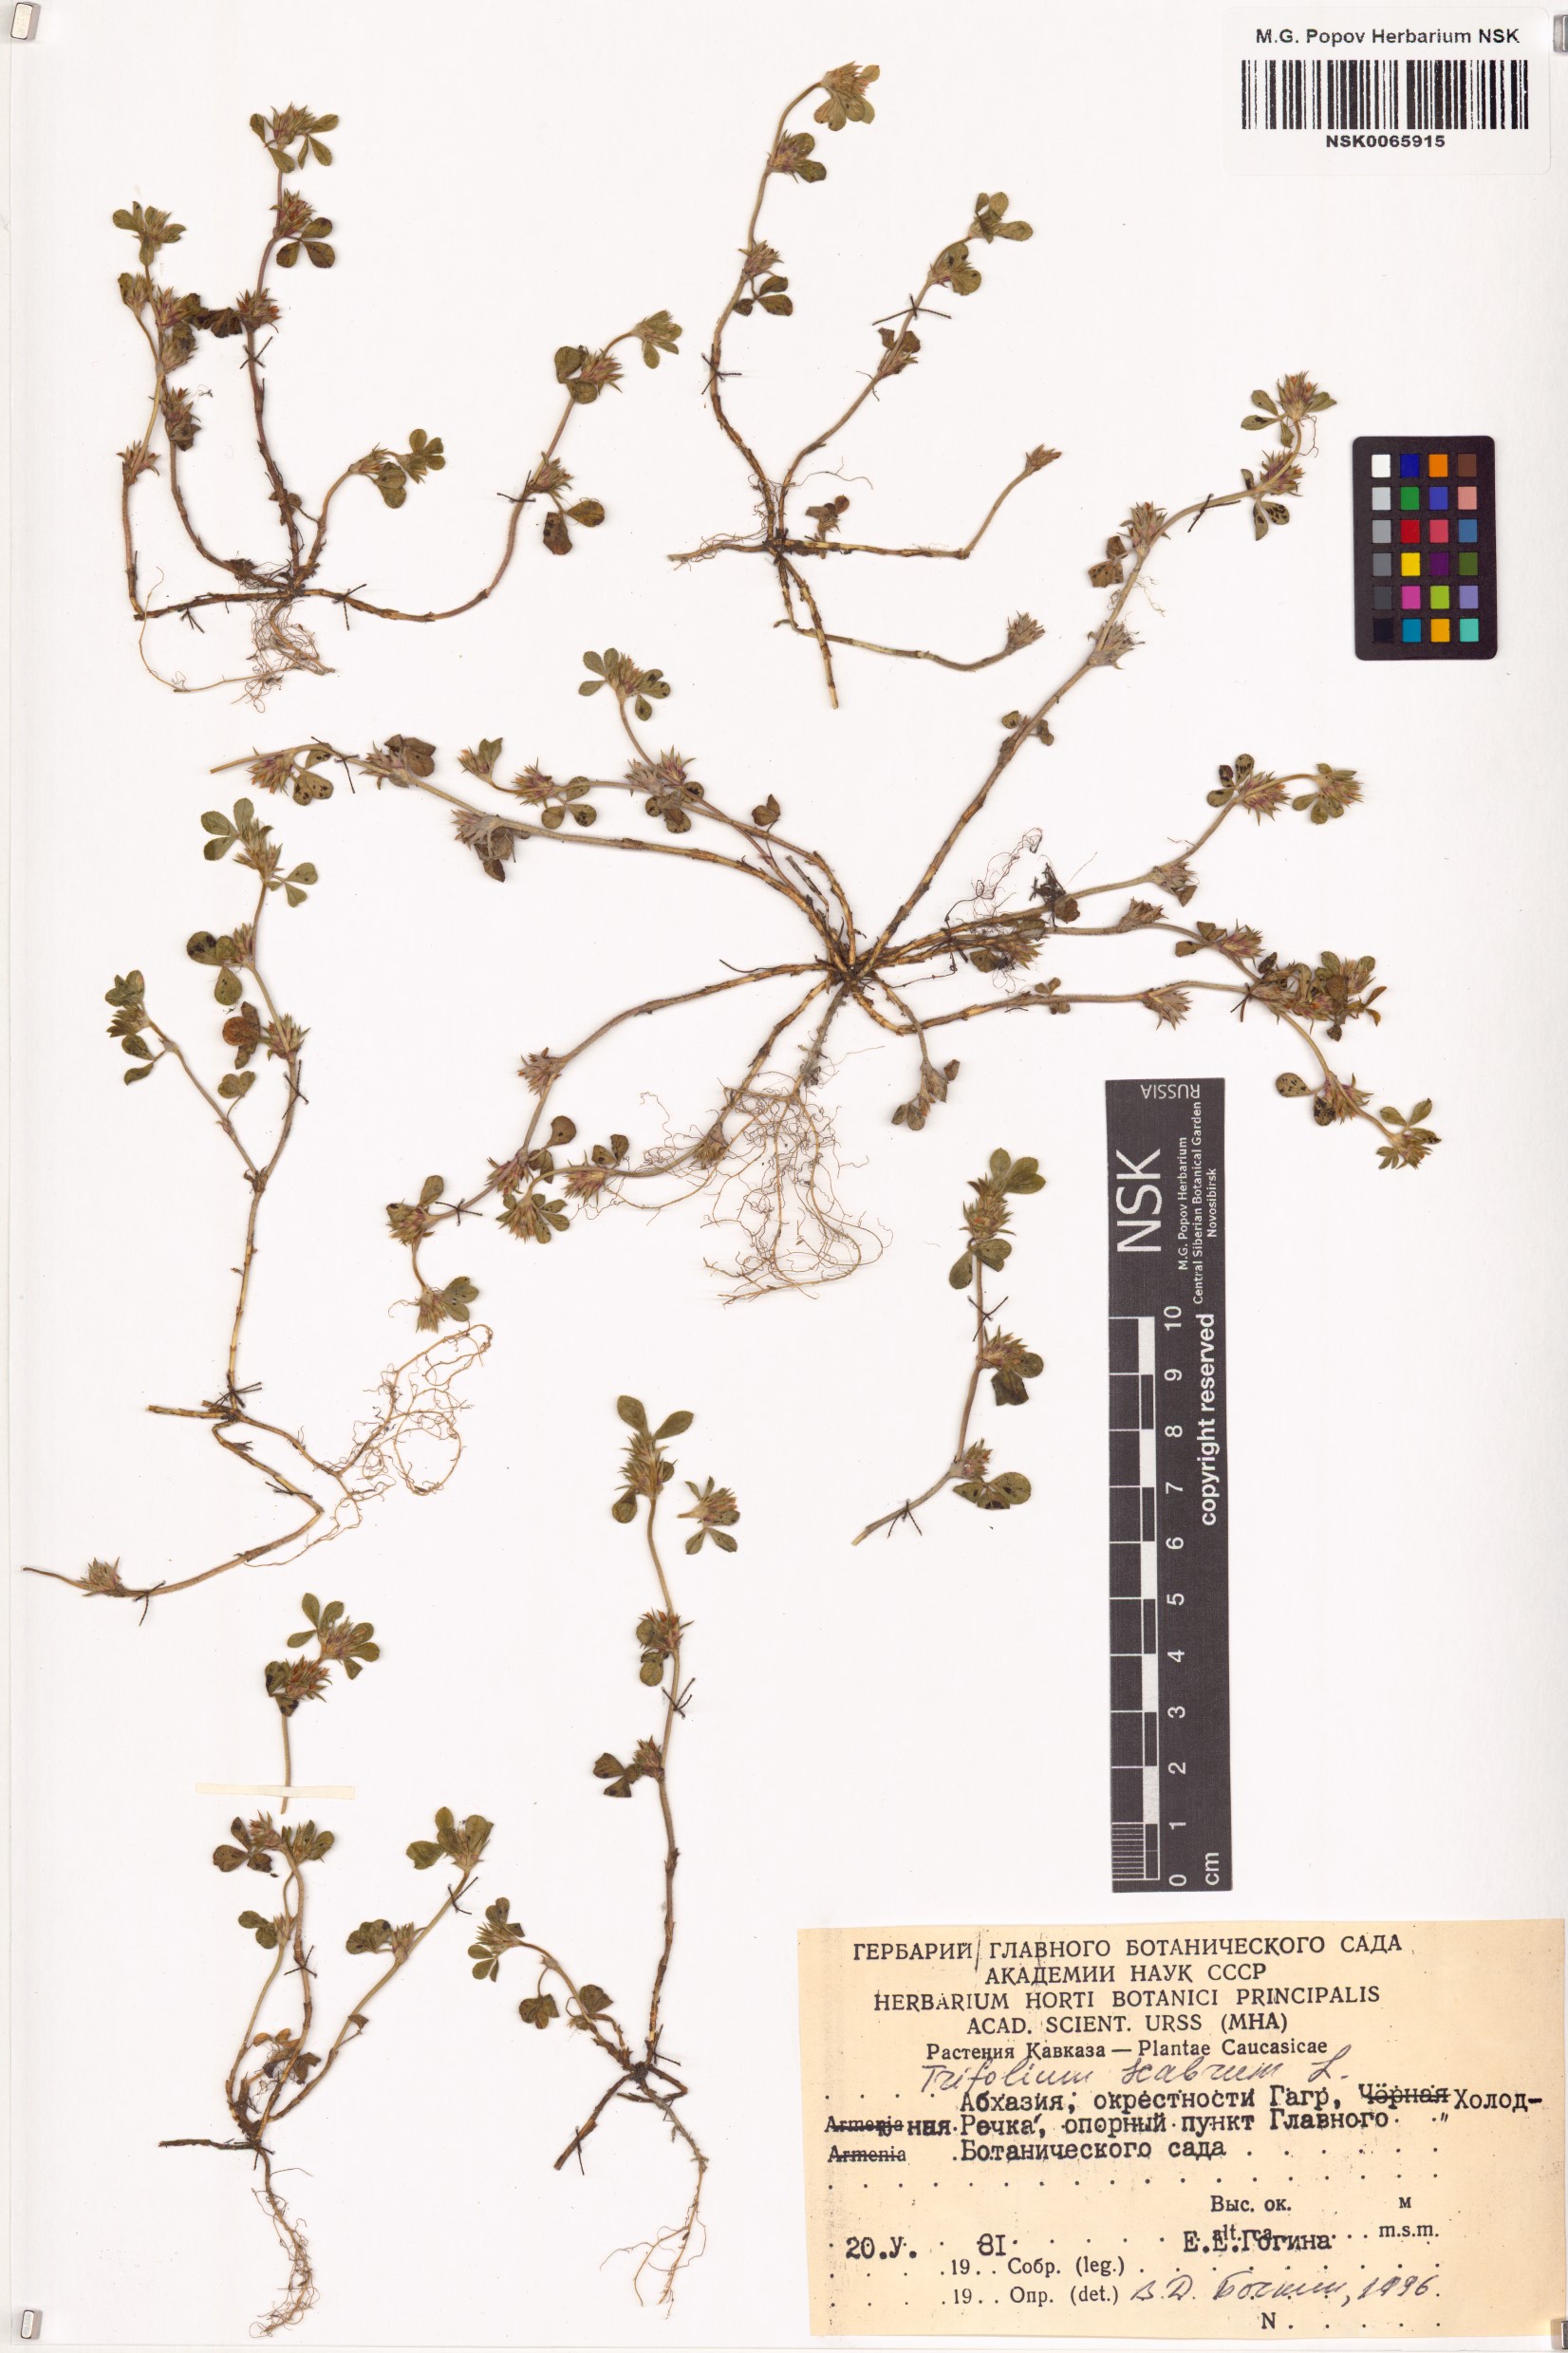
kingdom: Plantae
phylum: Tracheophyta
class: Magnoliopsida
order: Fabales
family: Fabaceae
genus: Trifolium
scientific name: Trifolium scabrum
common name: Rough clover
